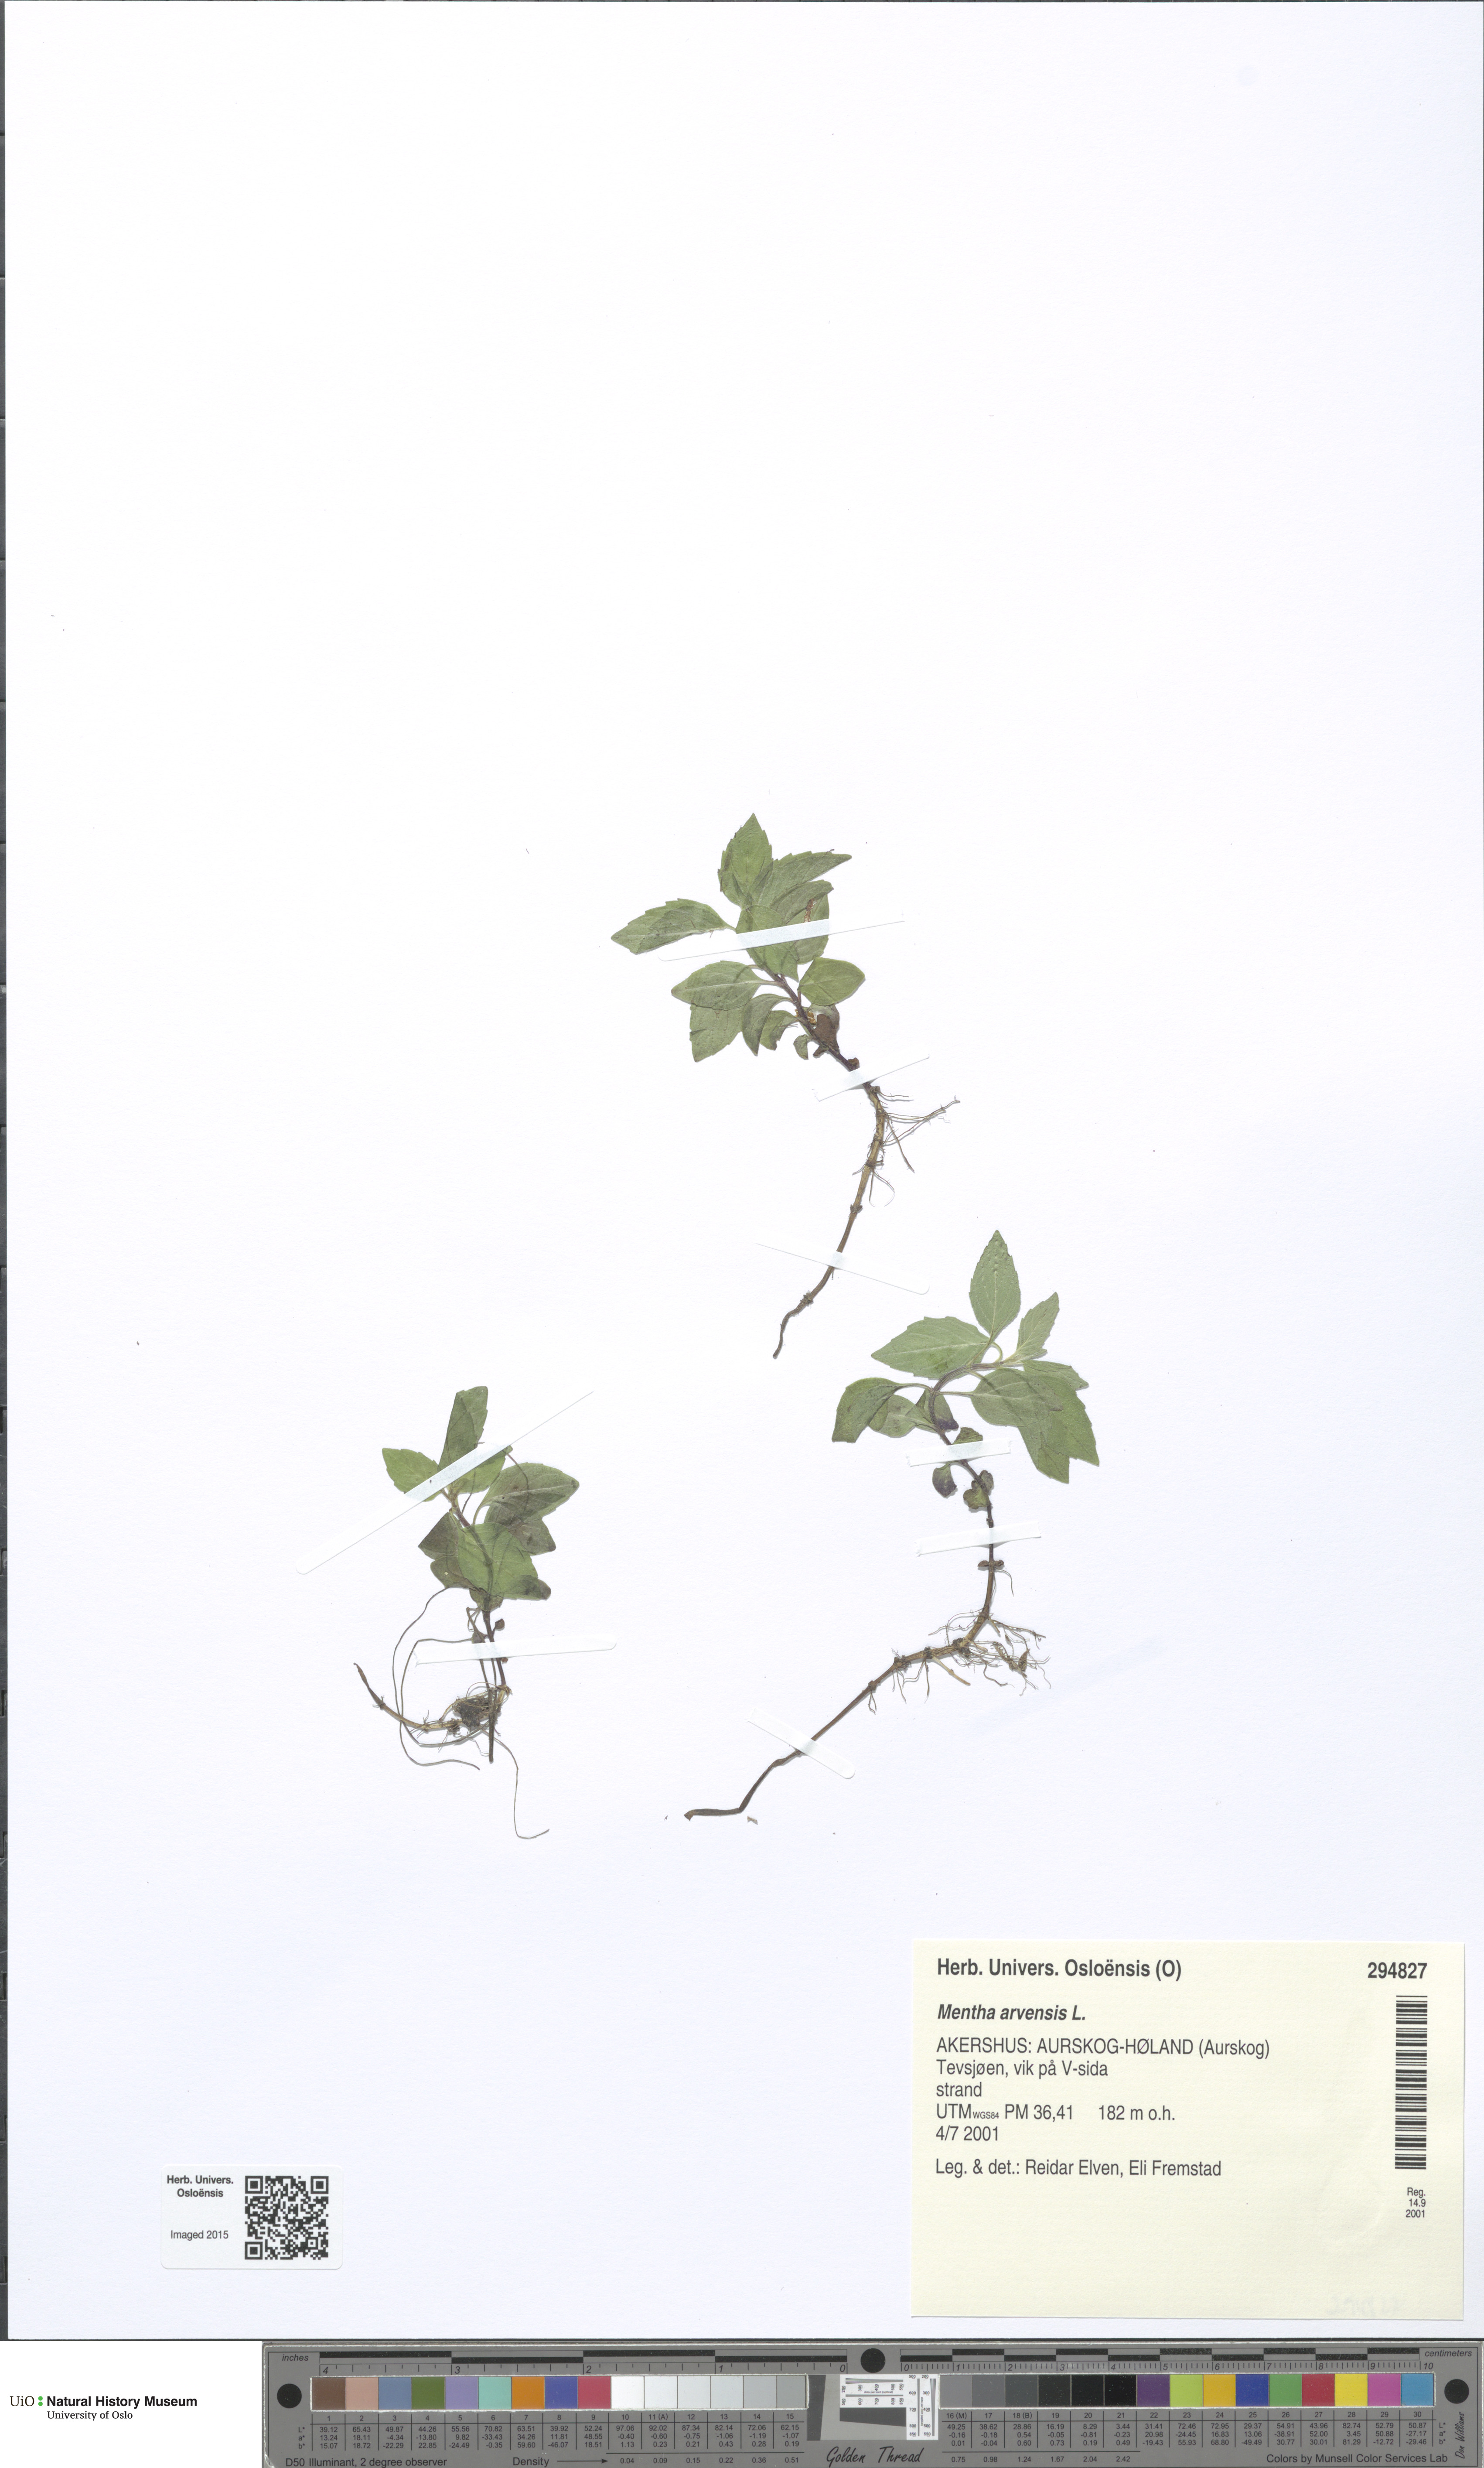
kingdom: Plantae
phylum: Tracheophyta
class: Magnoliopsida
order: Lamiales
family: Lamiaceae
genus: Mentha
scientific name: Mentha arvensis
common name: Corn mint
